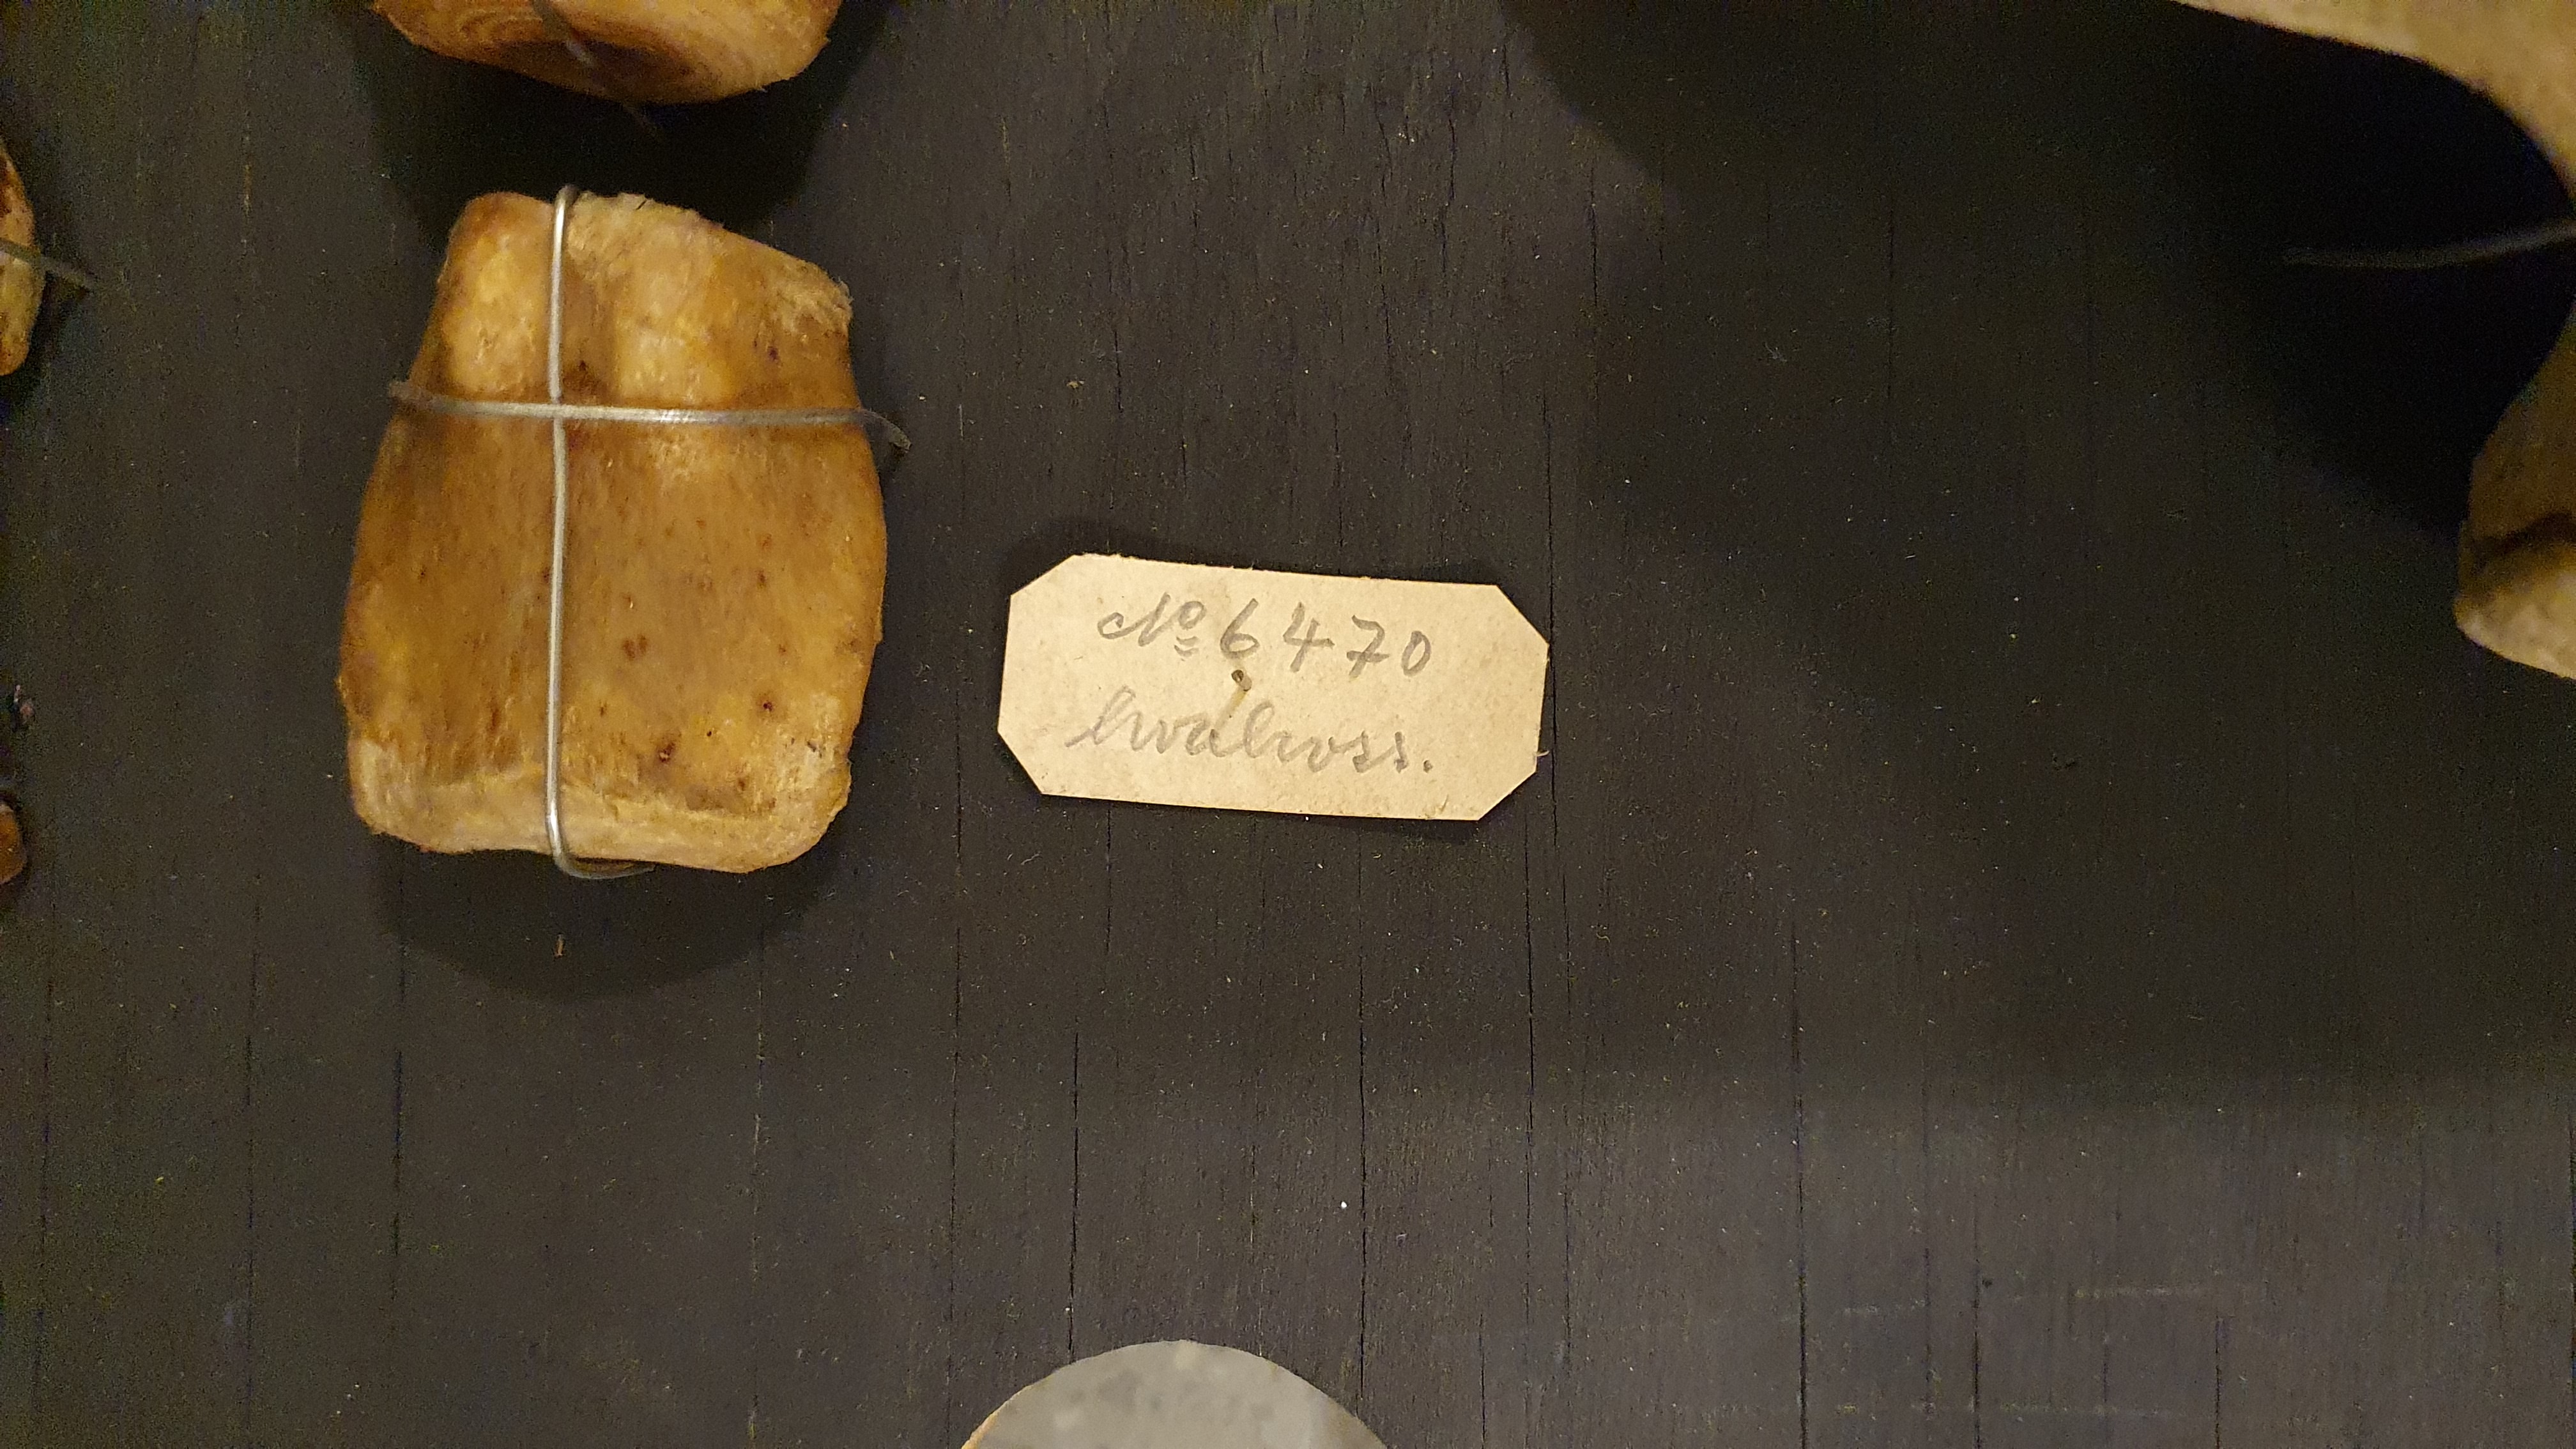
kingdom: Animalia
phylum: Chordata
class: Mammalia
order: Carnivora
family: Odobenidae
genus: Odobenus
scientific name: Odobenus rosmarus
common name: Walrus
